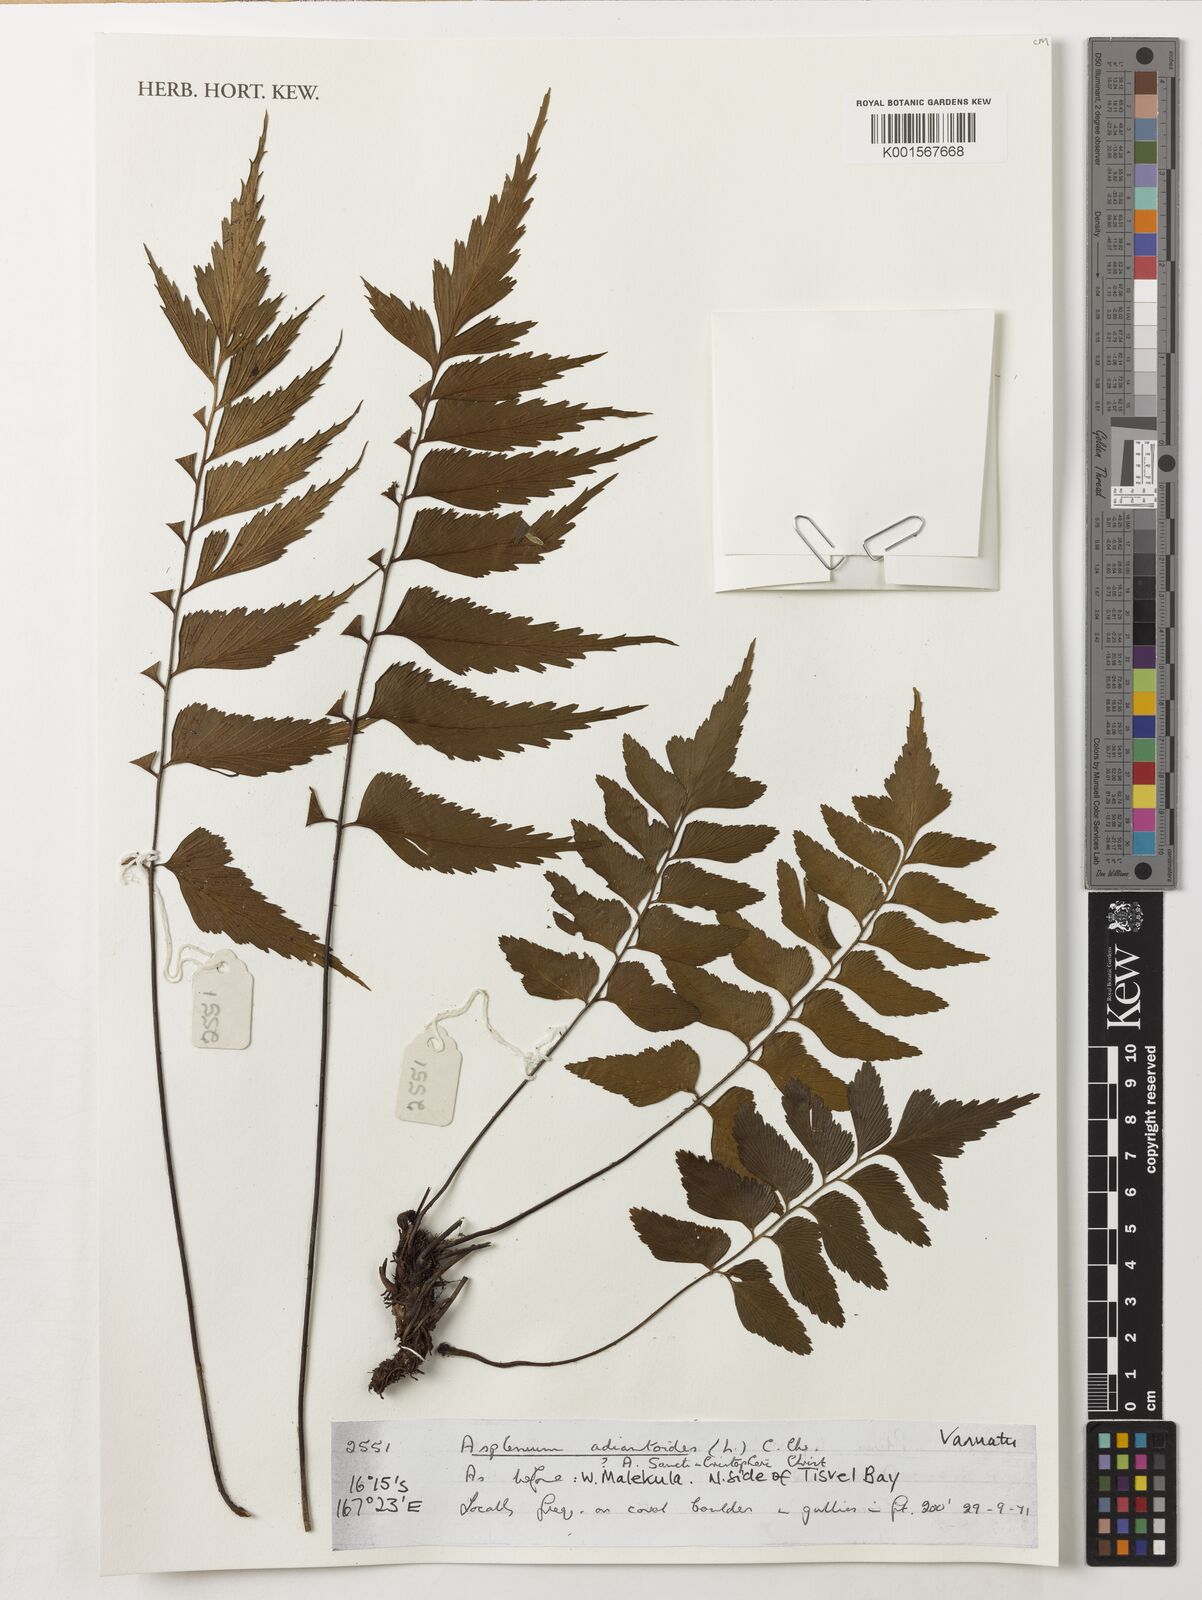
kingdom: Plantae
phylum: Tracheophyta
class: Polypodiopsida
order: Polypodiales
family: Aspleniaceae
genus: Asplenium
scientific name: Asplenium
